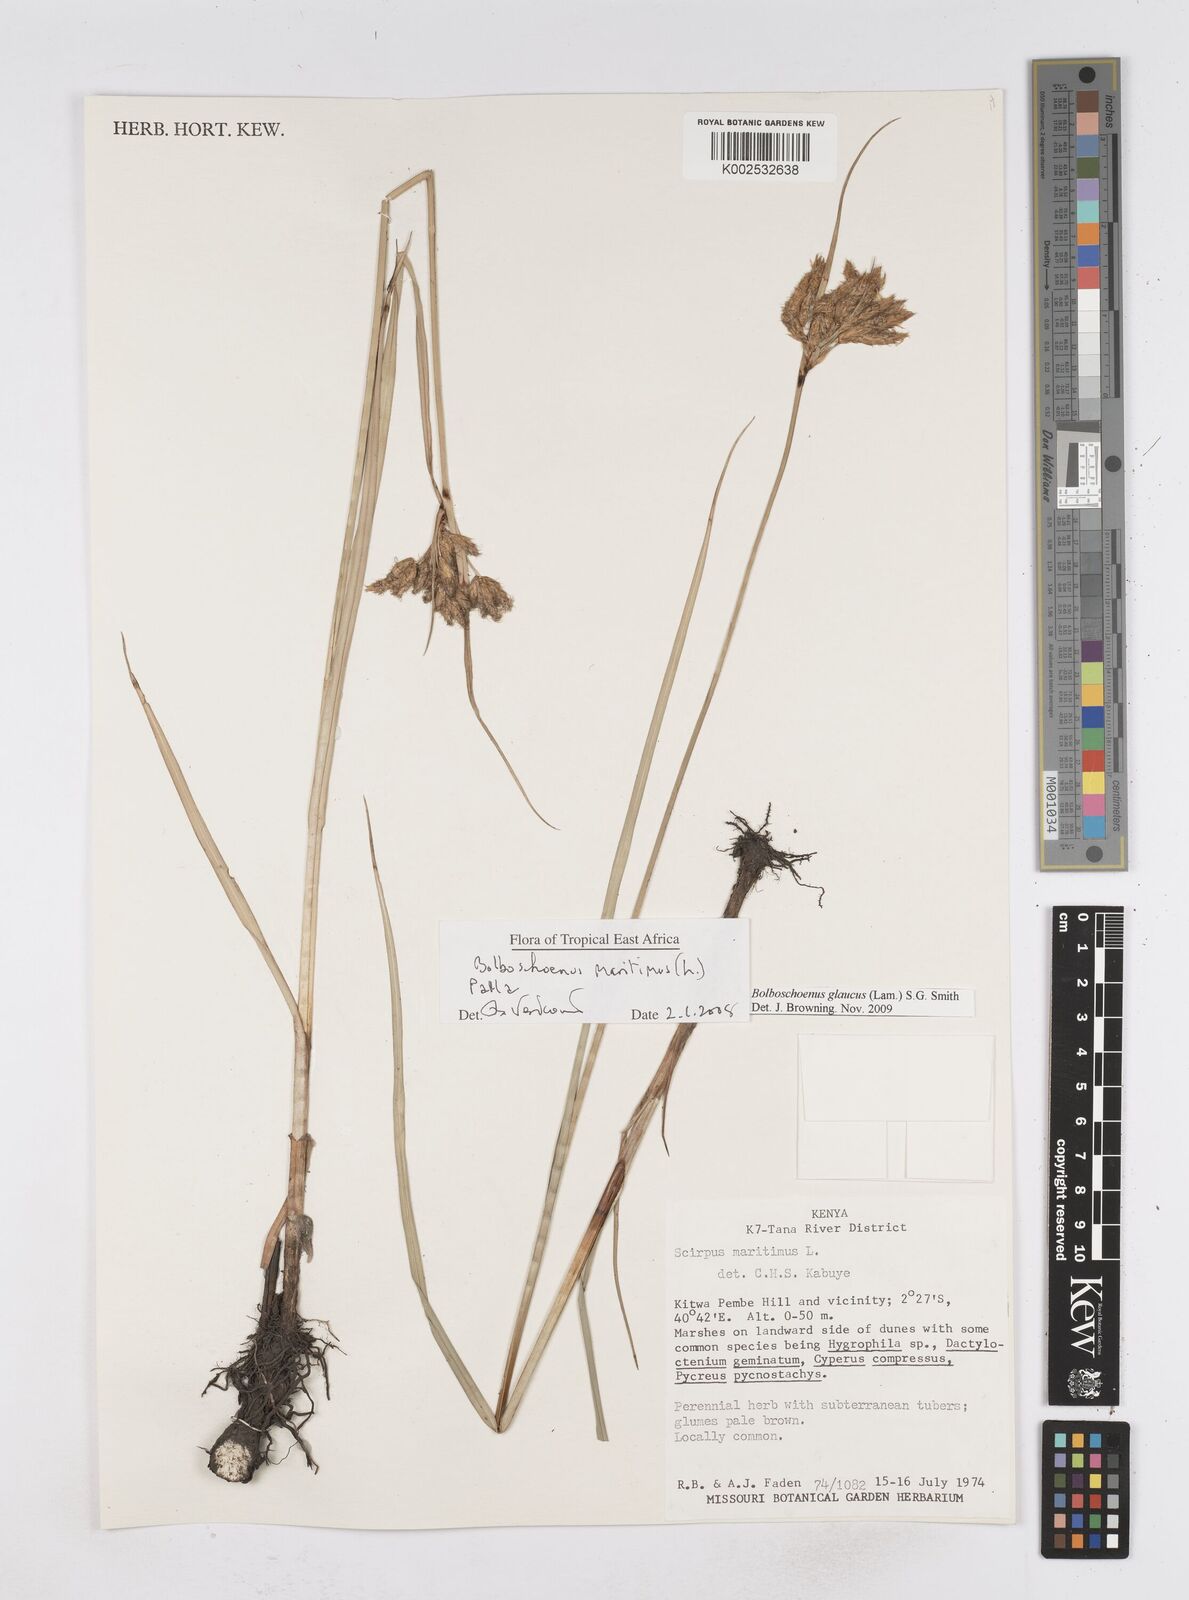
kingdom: Plantae
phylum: Tracheophyta
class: Liliopsida
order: Poales
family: Cyperaceae
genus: Bolboschoenus
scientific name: Bolboschoenus glaucus
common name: Tuberous bulrush
